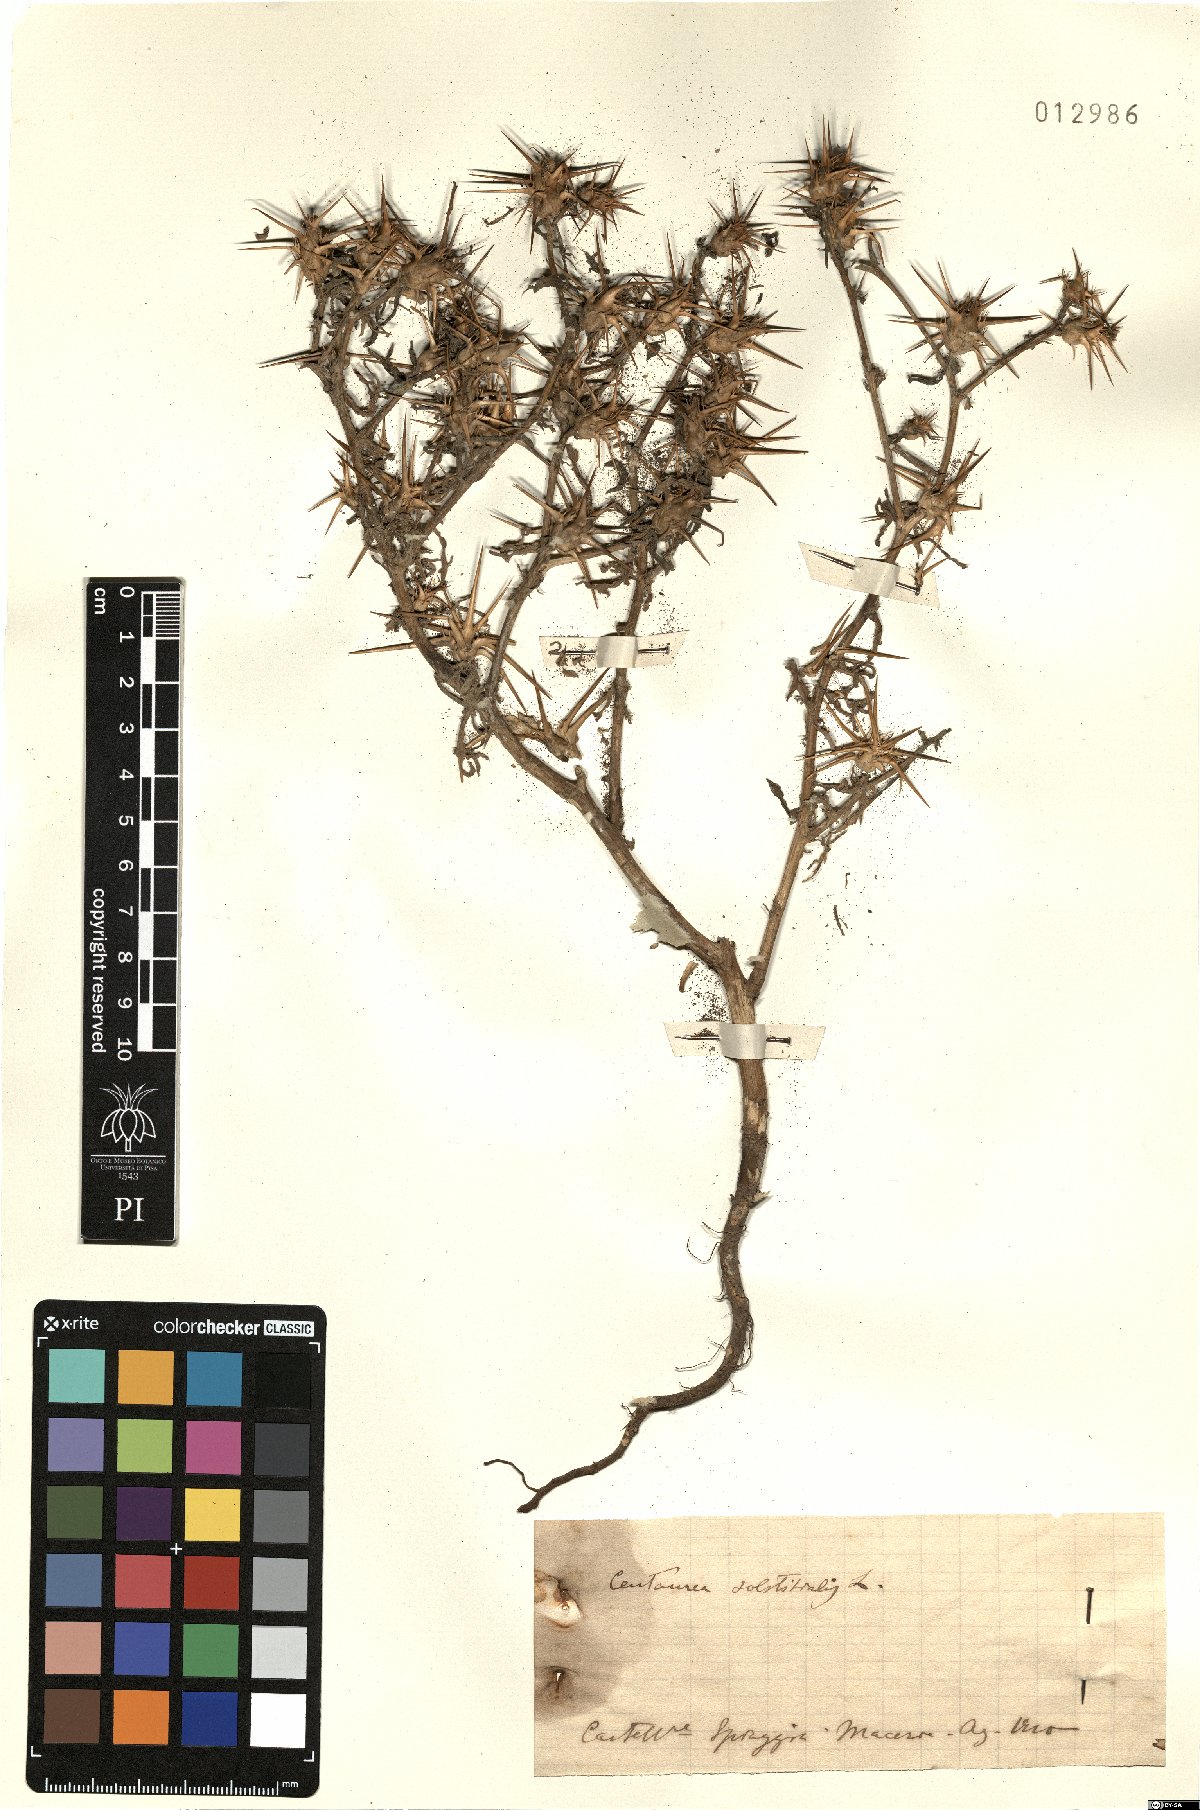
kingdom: Plantae
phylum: Tracheophyta
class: Magnoliopsida
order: Asterales
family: Asteraceae
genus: Centaurea
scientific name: Centaurea solstitialis
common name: Yellow star-thistle
